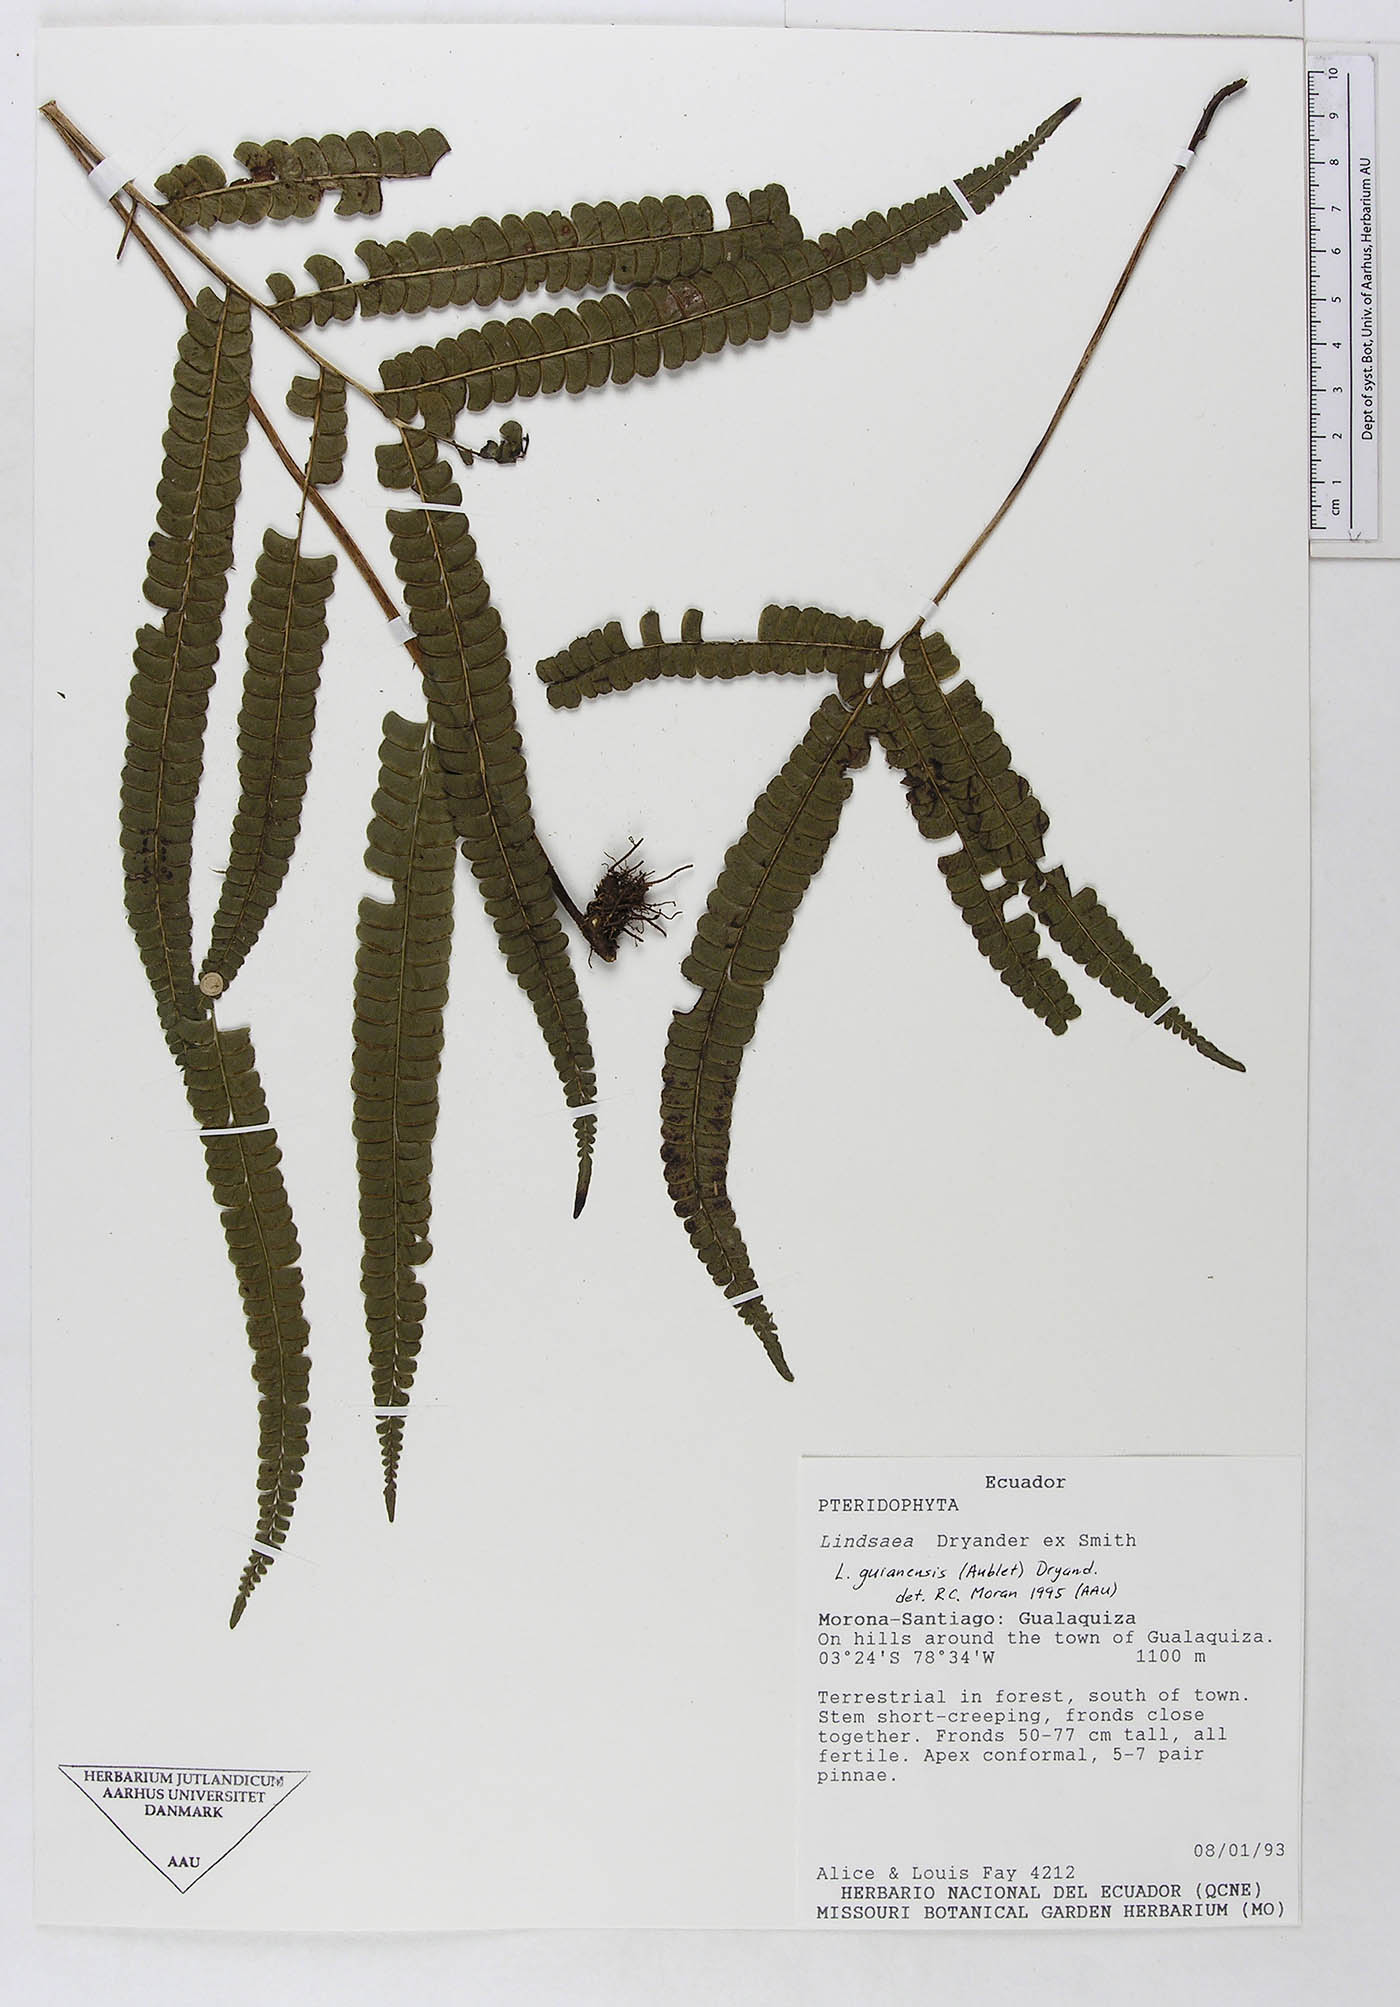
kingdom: Plantae
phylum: Tracheophyta
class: Polypodiopsida
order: Polypodiales
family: Lindsaeaceae
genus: Lindsaea
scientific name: Lindsaea guianensis
